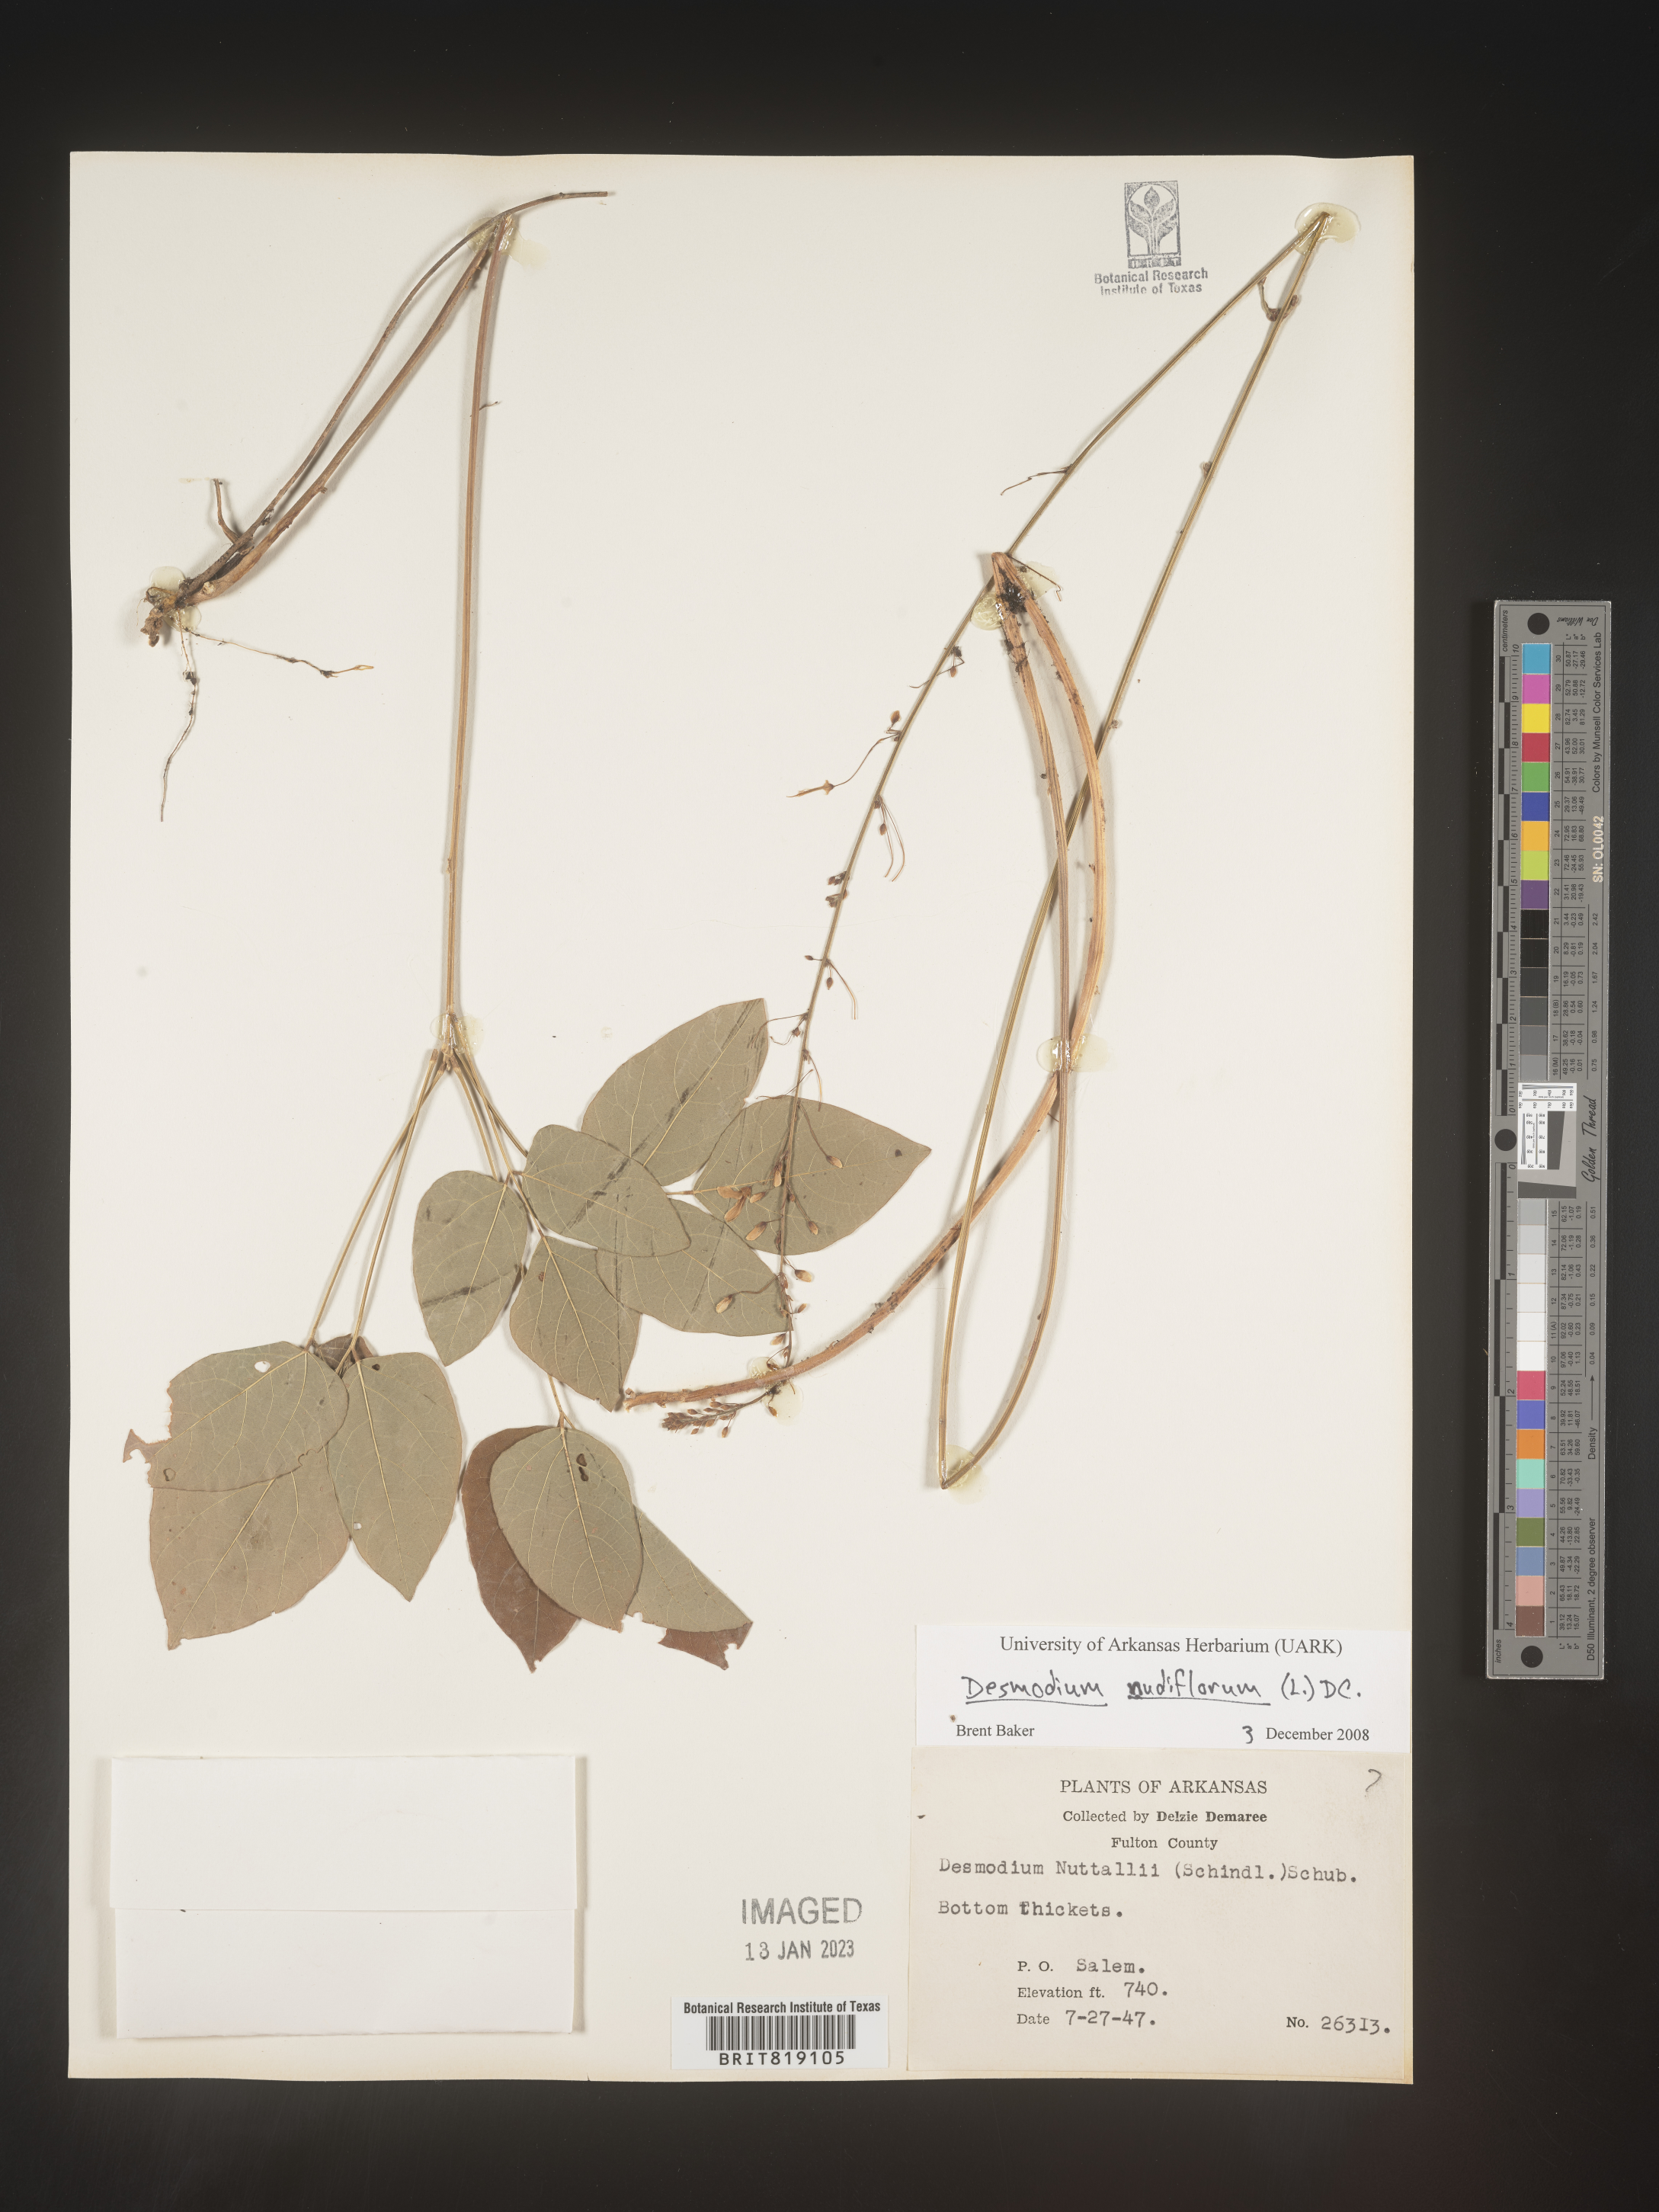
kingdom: Plantae
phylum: Tracheophyta
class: Magnoliopsida
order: Fabales
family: Fabaceae
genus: Hylodesmum
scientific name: Hylodesmum nudiflorum
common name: Bare-stemmed tick-trefoil
